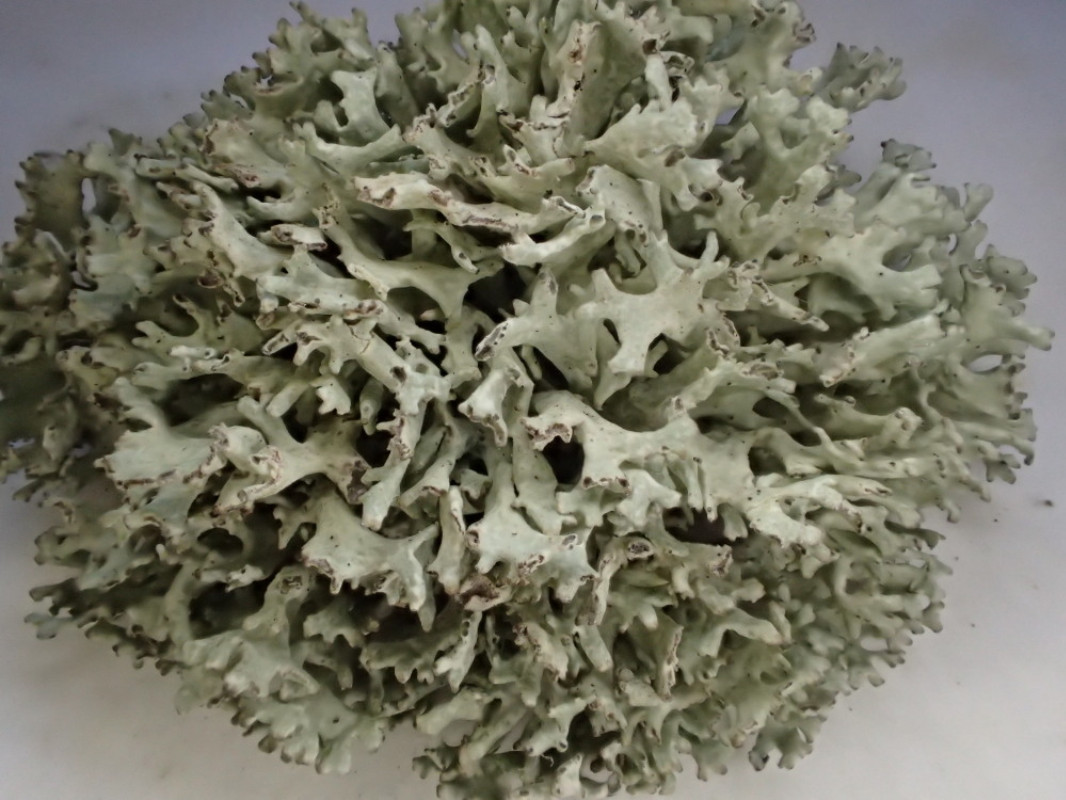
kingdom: Fungi
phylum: Ascomycota
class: Lecanoromycetes
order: Lecanorales
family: Parmeliaceae
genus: Evernia
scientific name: Evernia prunastri
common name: almindelig slåenlav
